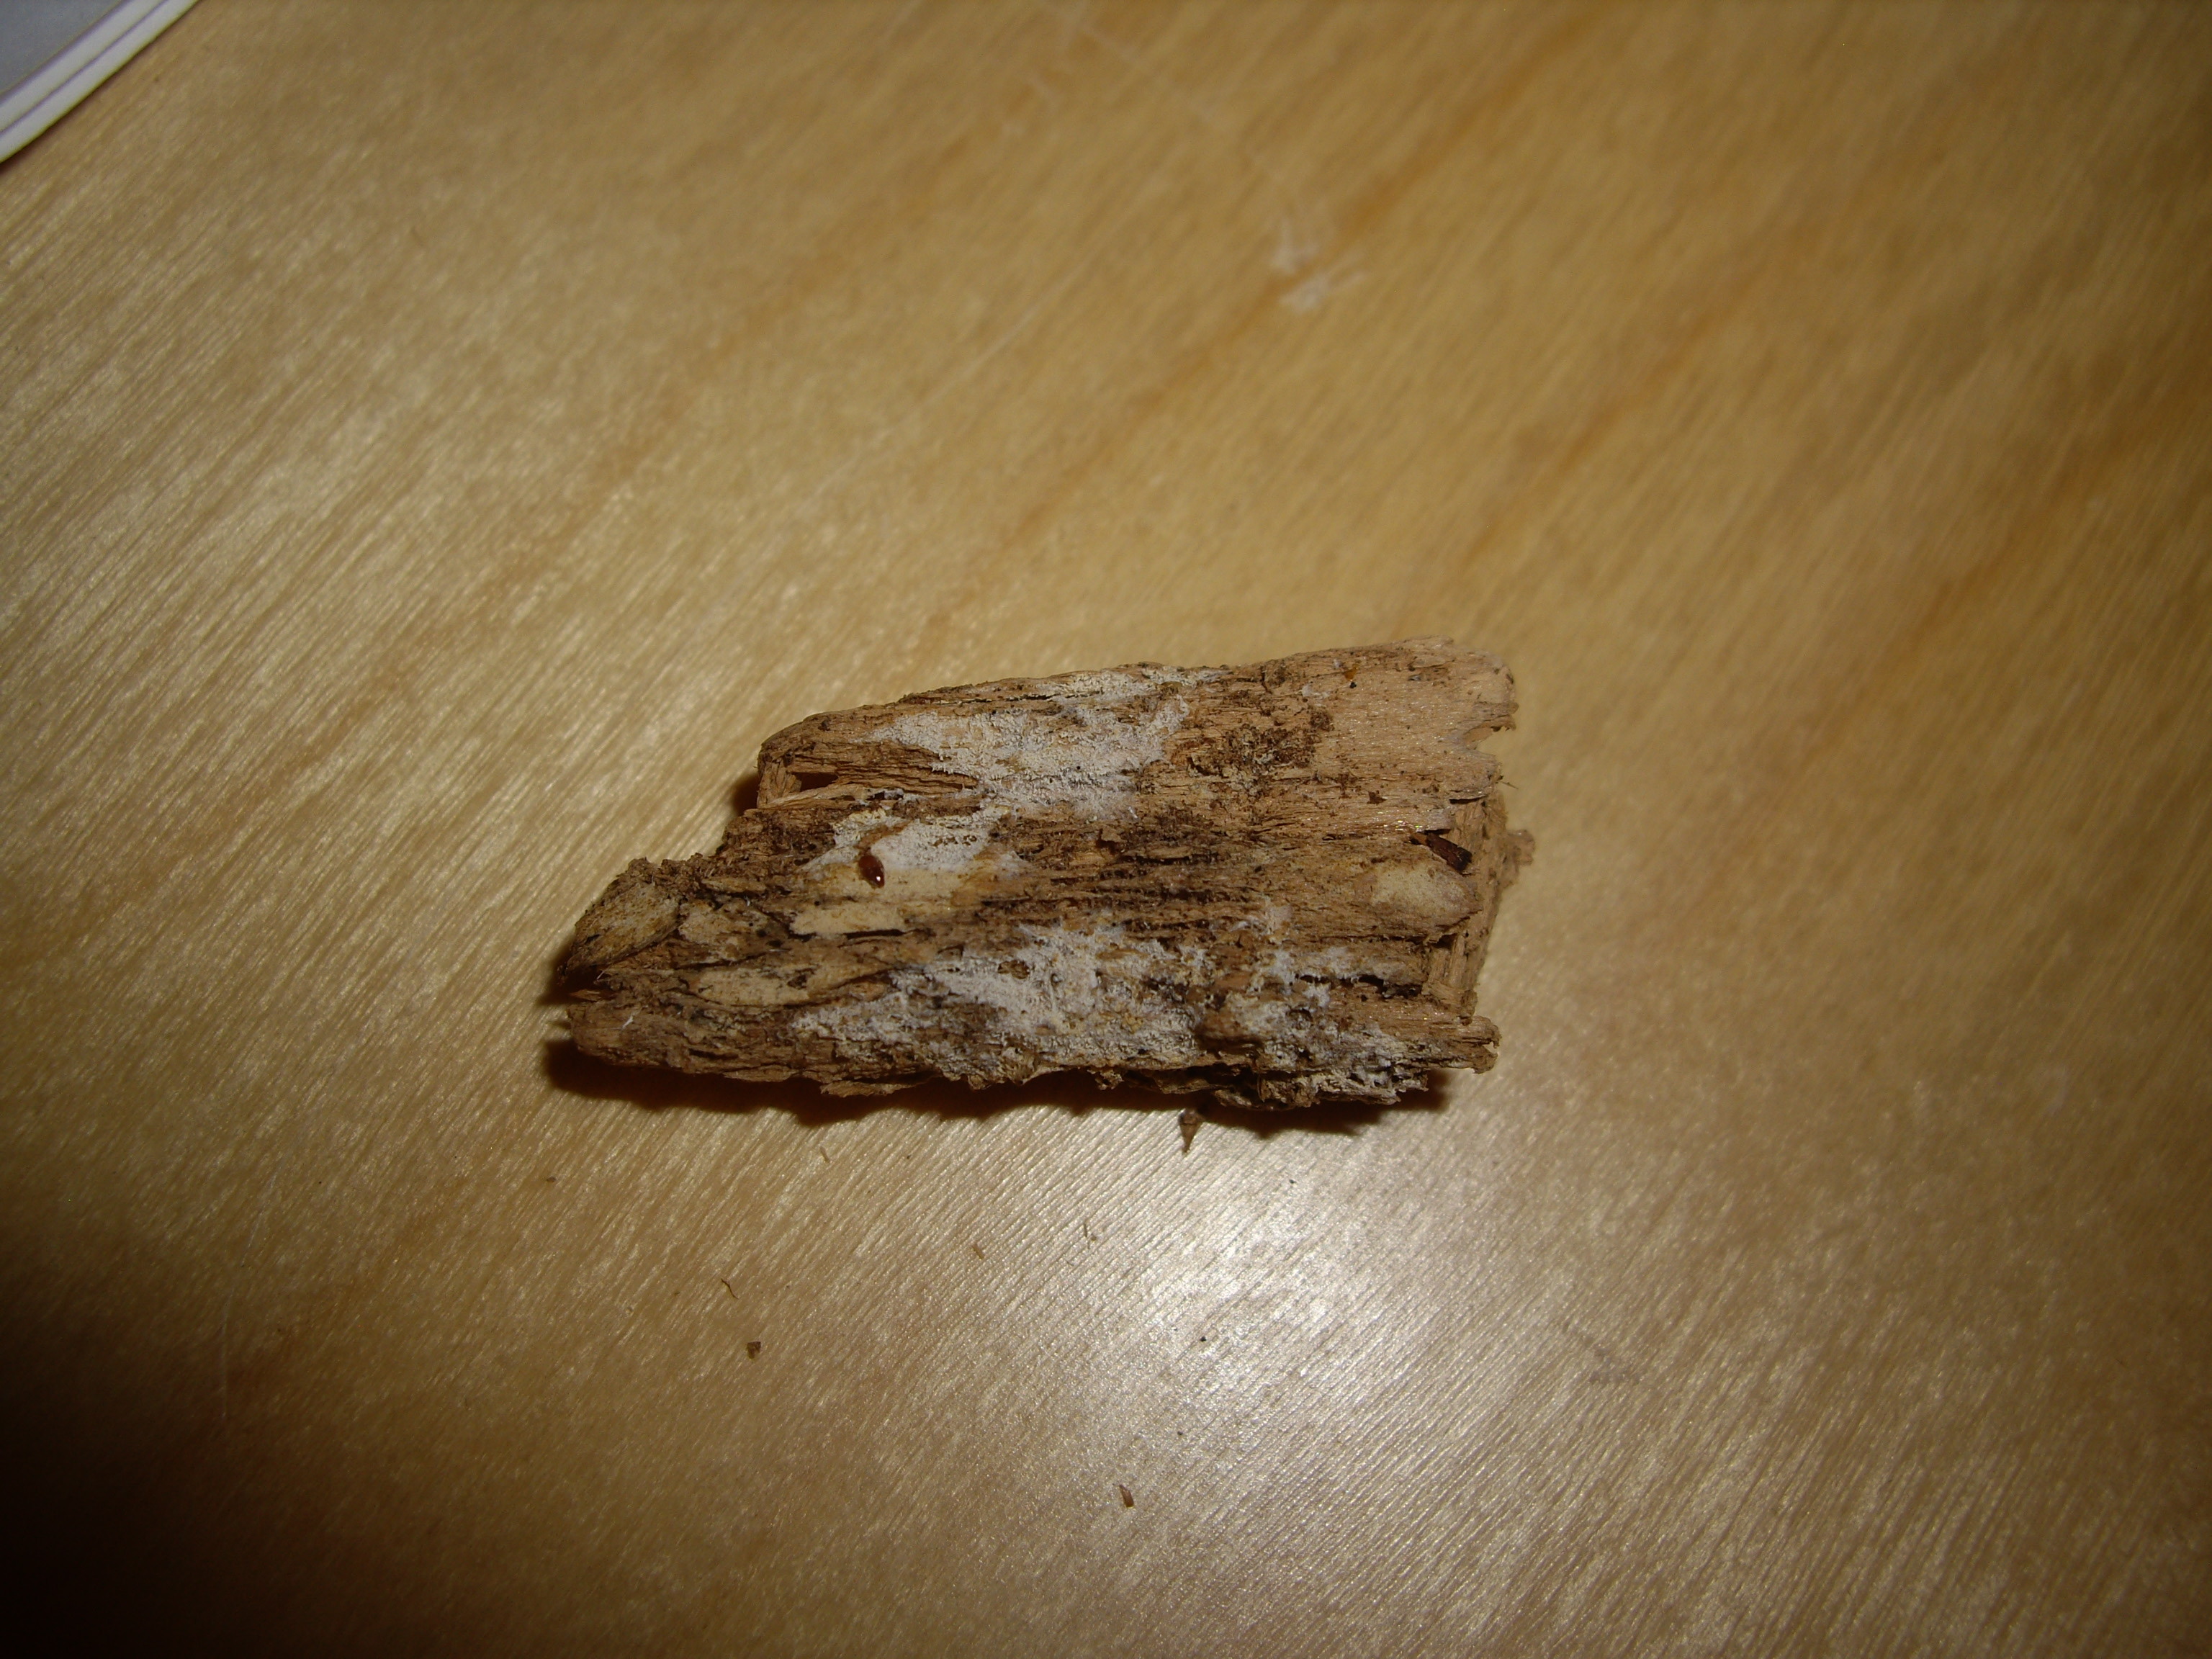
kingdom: Fungi
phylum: Basidiomycota
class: Agaricomycetes
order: Trechisporales
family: Sistotremataceae
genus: Trechispora
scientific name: Trechispora stevensonii
